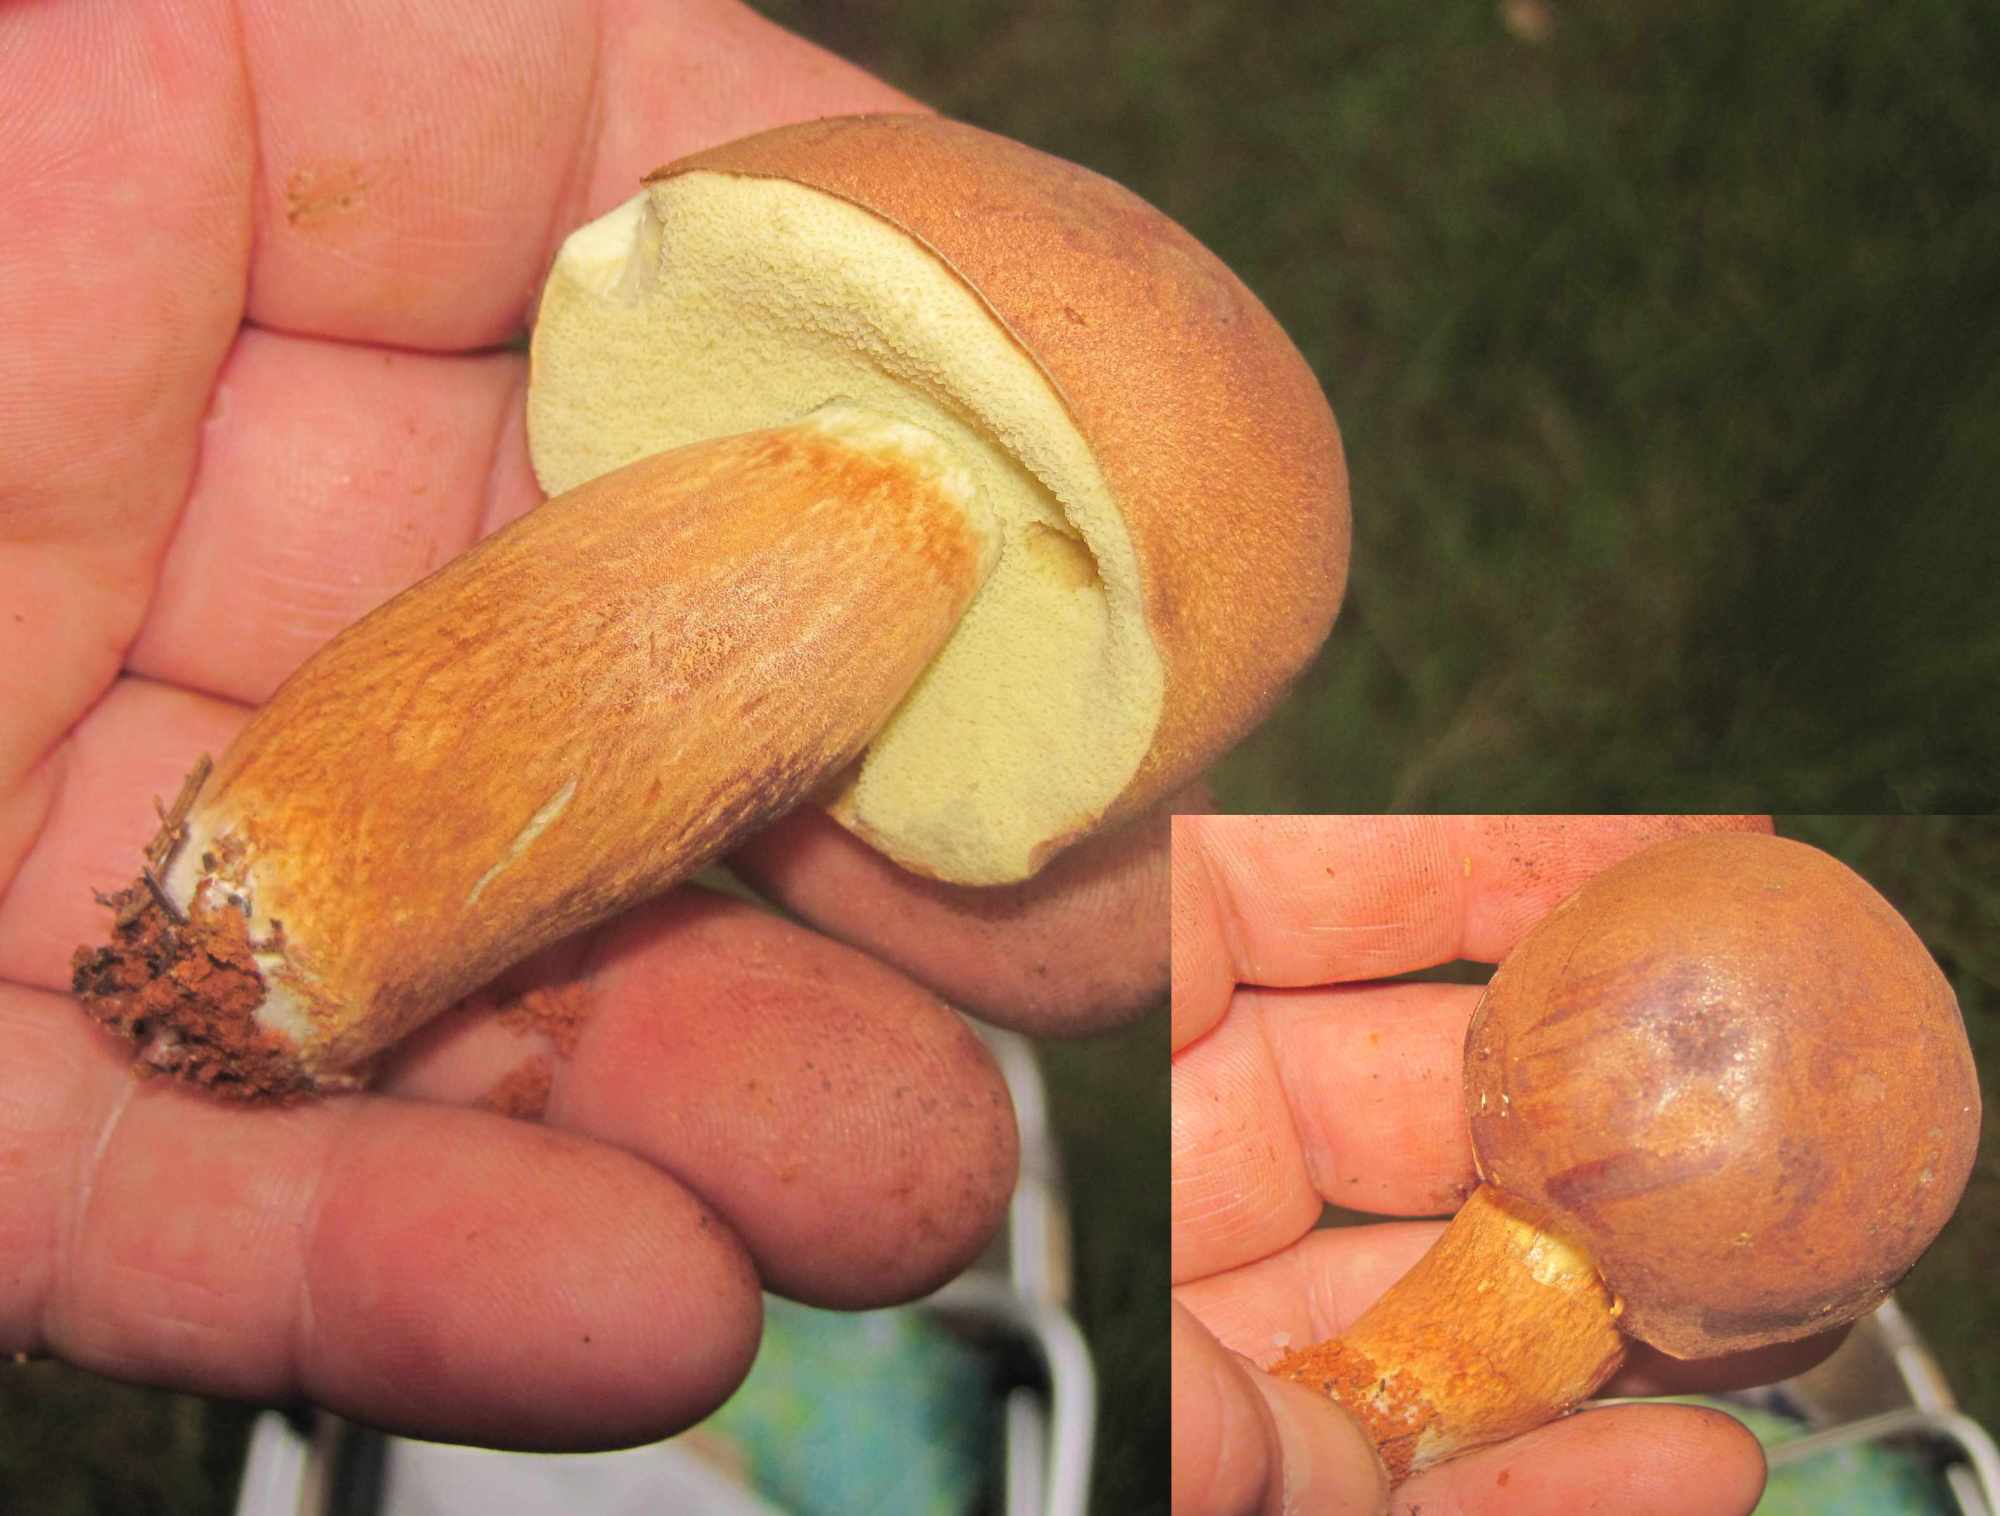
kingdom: Fungi
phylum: Basidiomycota
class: Agaricomycetes
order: Boletales
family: Boletaceae
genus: Caloboletus
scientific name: Caloboletus radicans
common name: rod-rørhat
